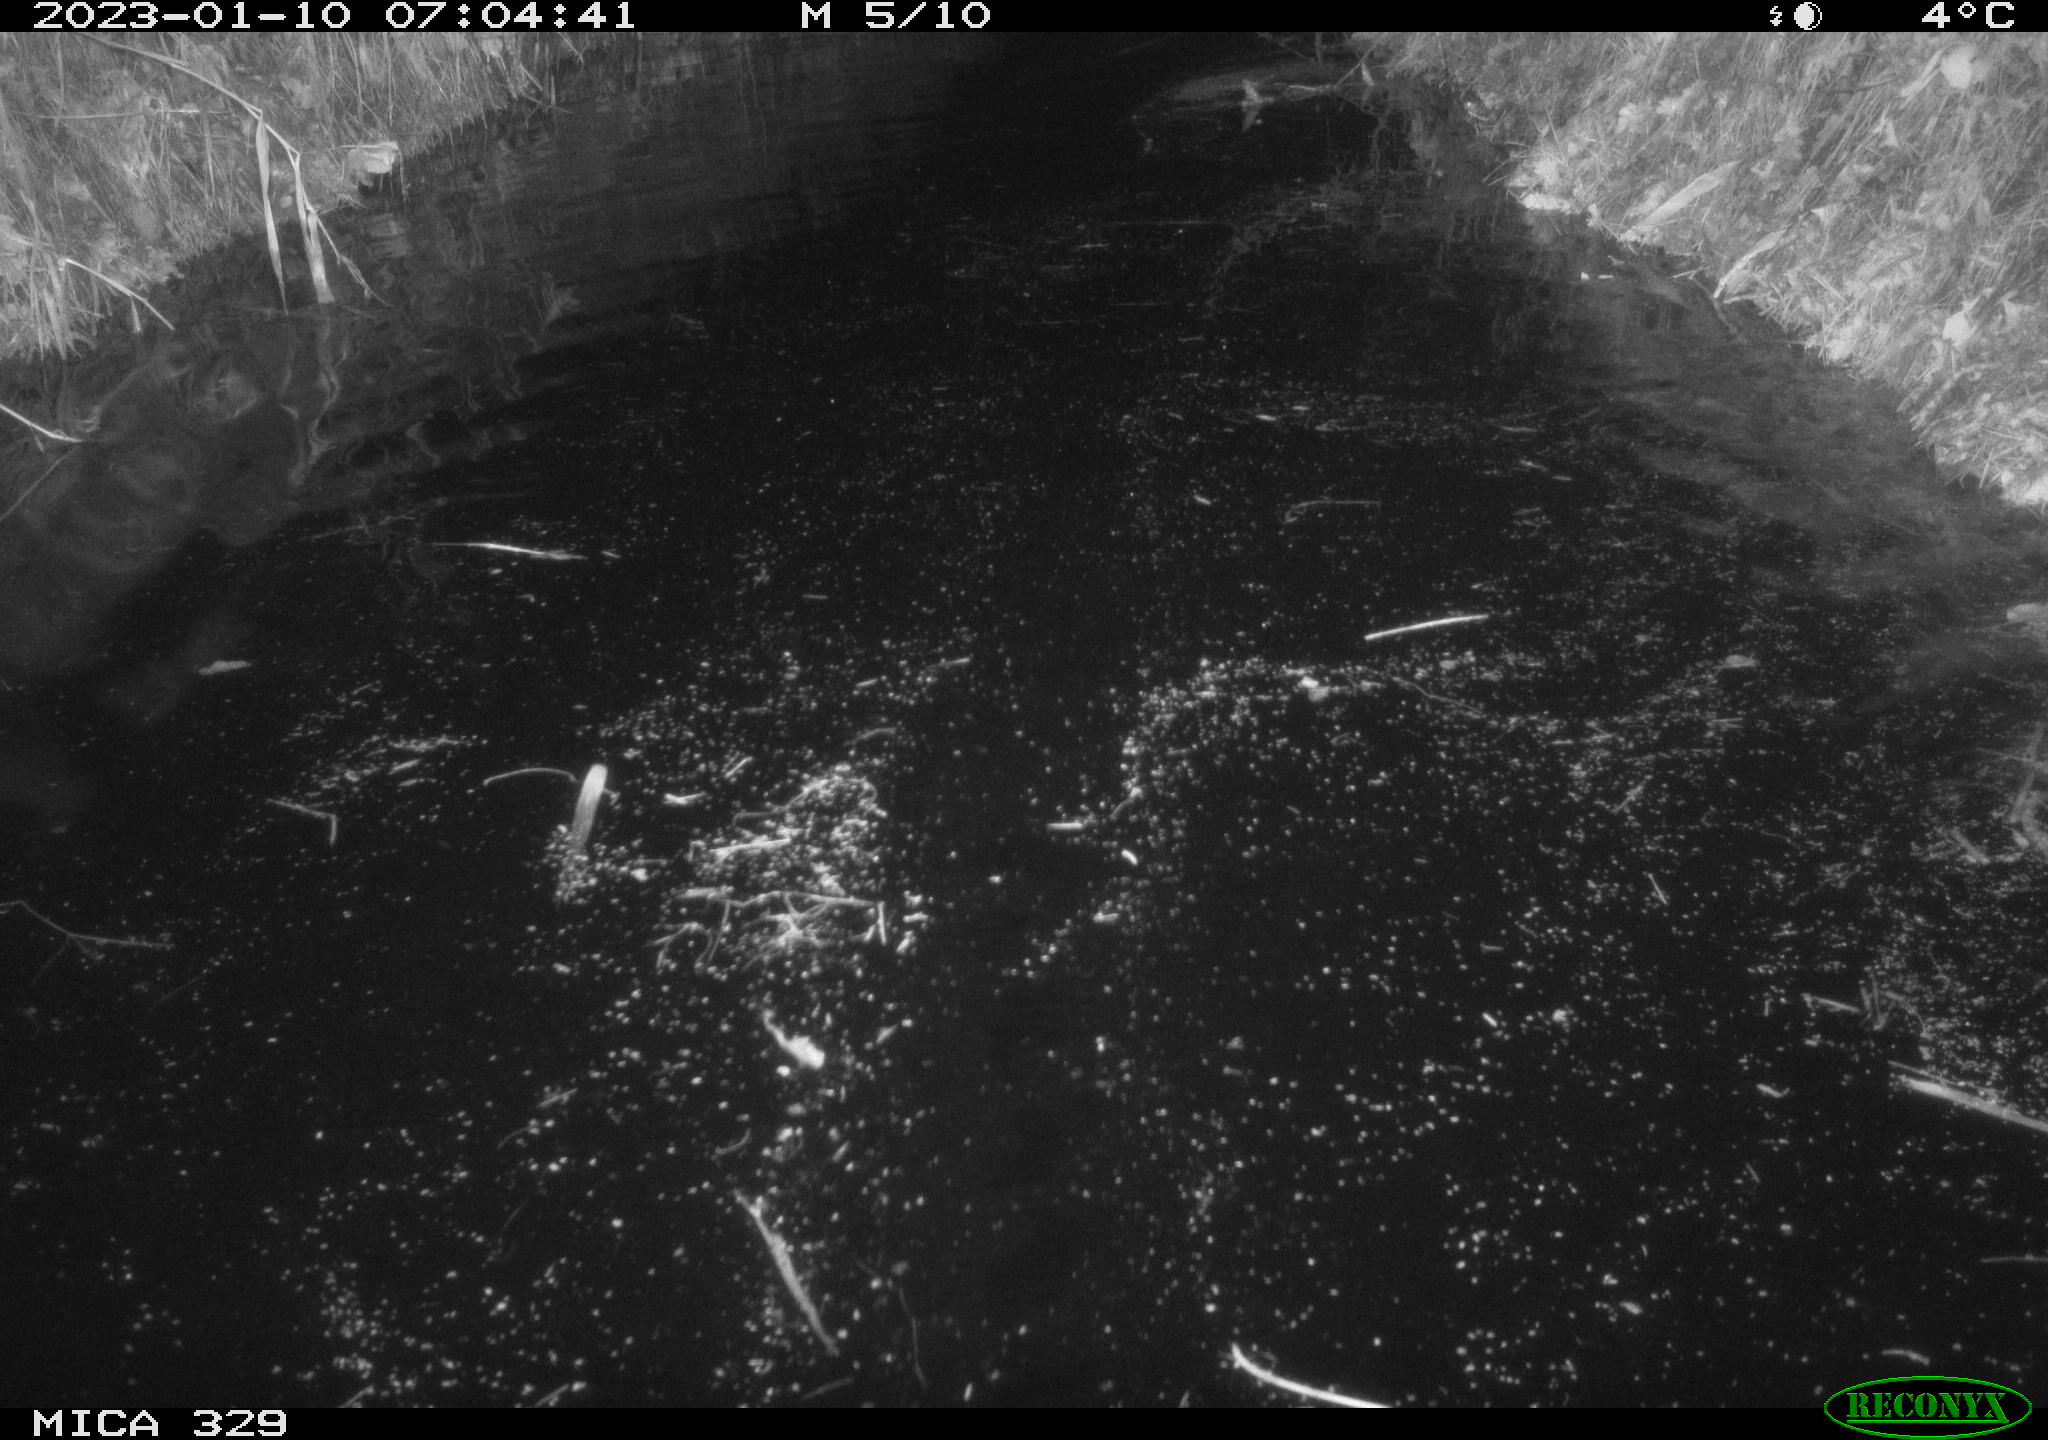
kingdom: Animalia
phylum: Chordata
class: Mammalia
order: Rodentia
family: Cricetidae
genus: Ondatra
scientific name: Ondatra zibethicus
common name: Muskrat
